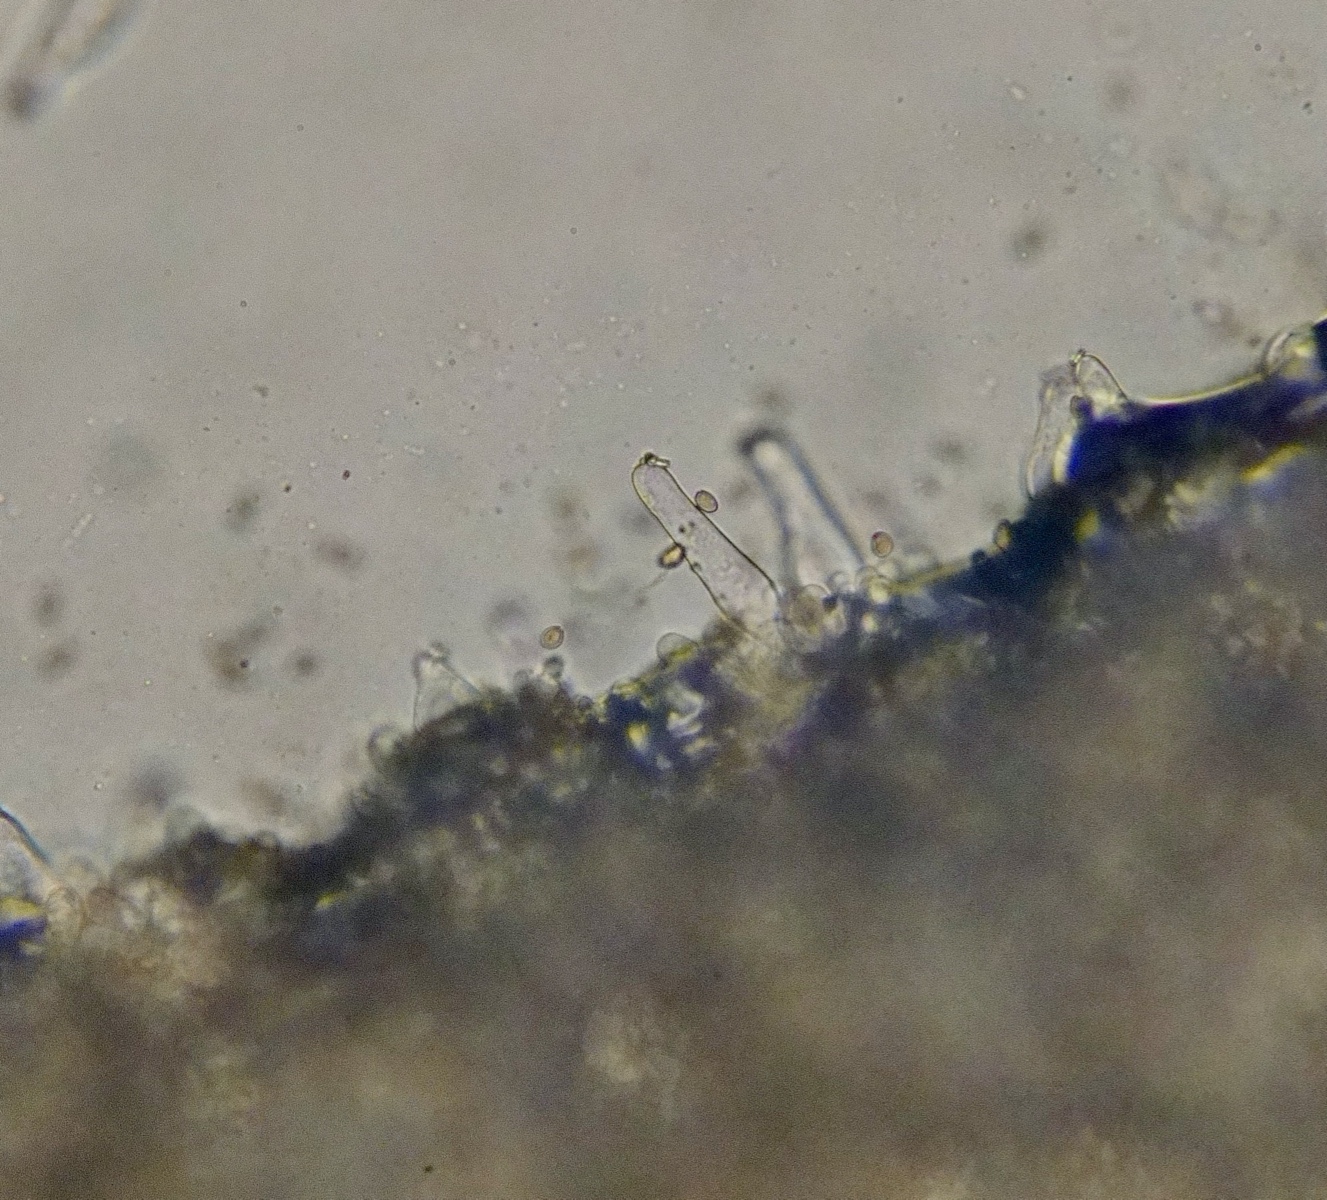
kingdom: Fungi
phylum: Basidiomycota
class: Agaricomycetes
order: Agaricales
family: Inocybaceae
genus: Inocybe
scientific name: Inocybe
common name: almindelig trævlhat
